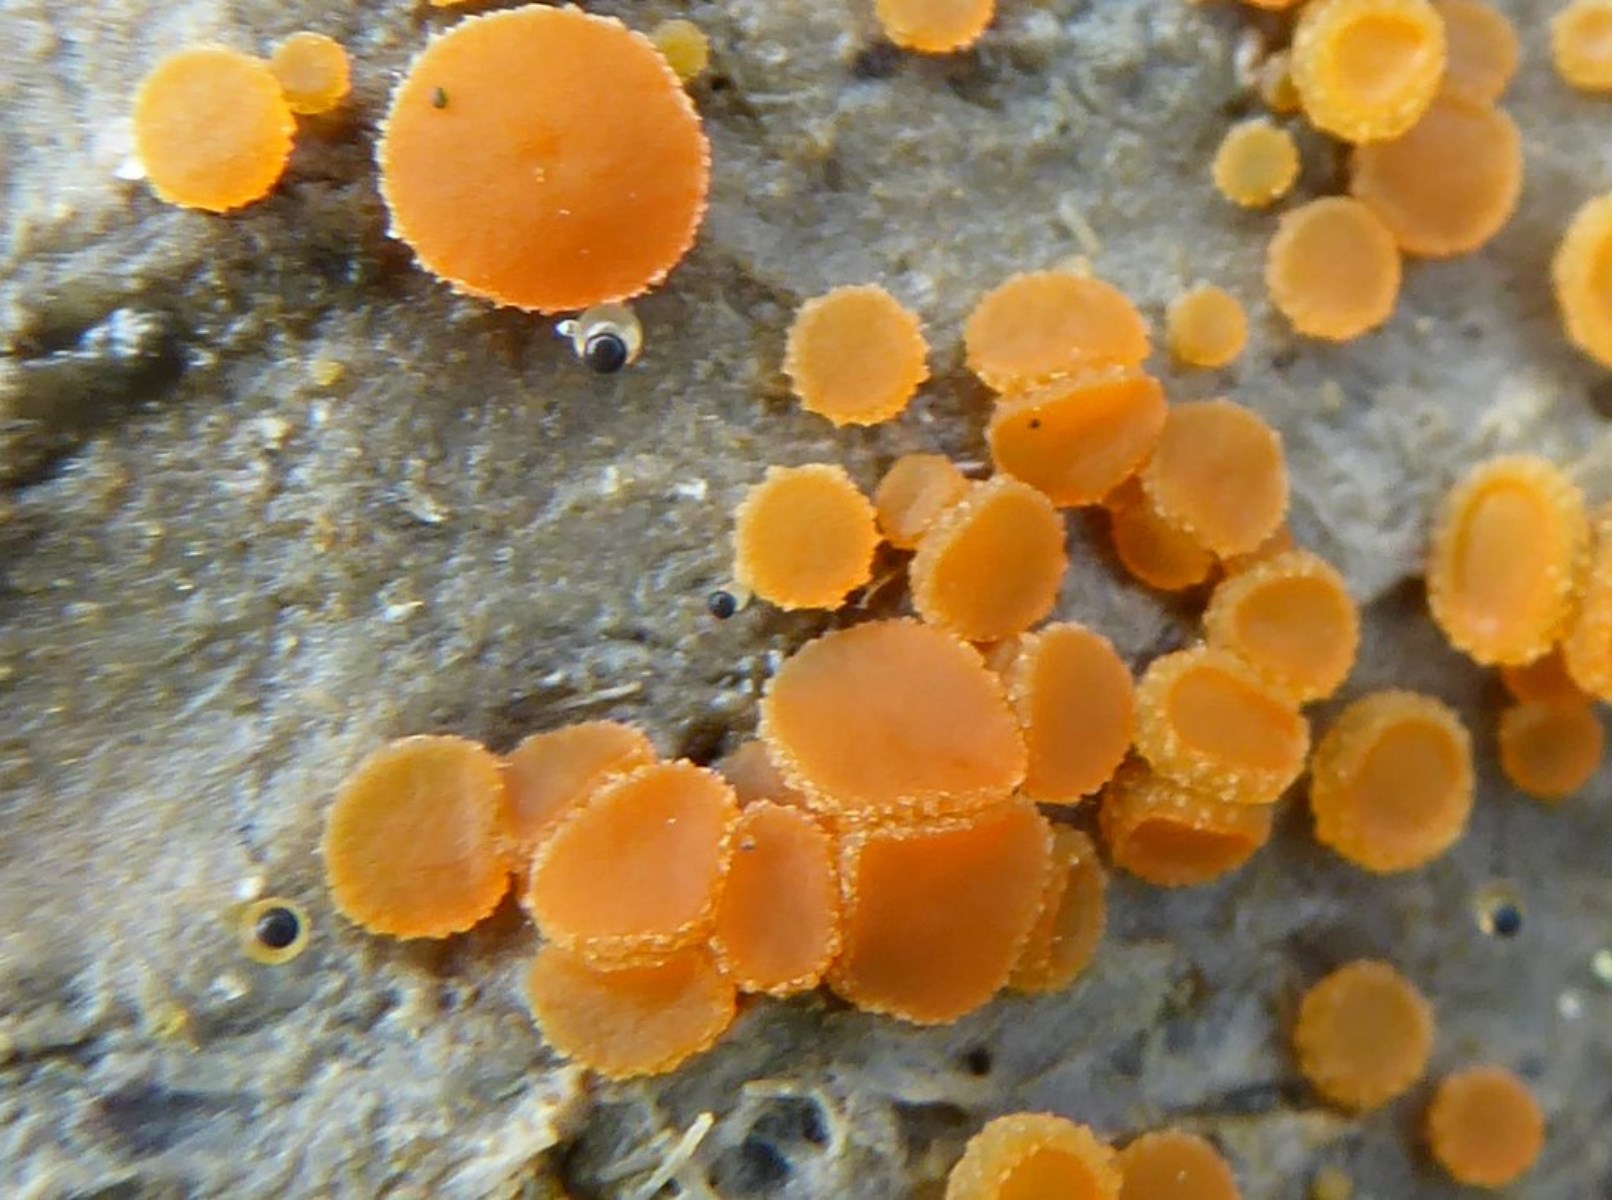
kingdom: Fungi
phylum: Ascomycota
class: Pezizomycetes
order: Pezizales
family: Pyronemataceae
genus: Cheilymenia
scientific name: Cheilymenia granulata
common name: møgbæger
